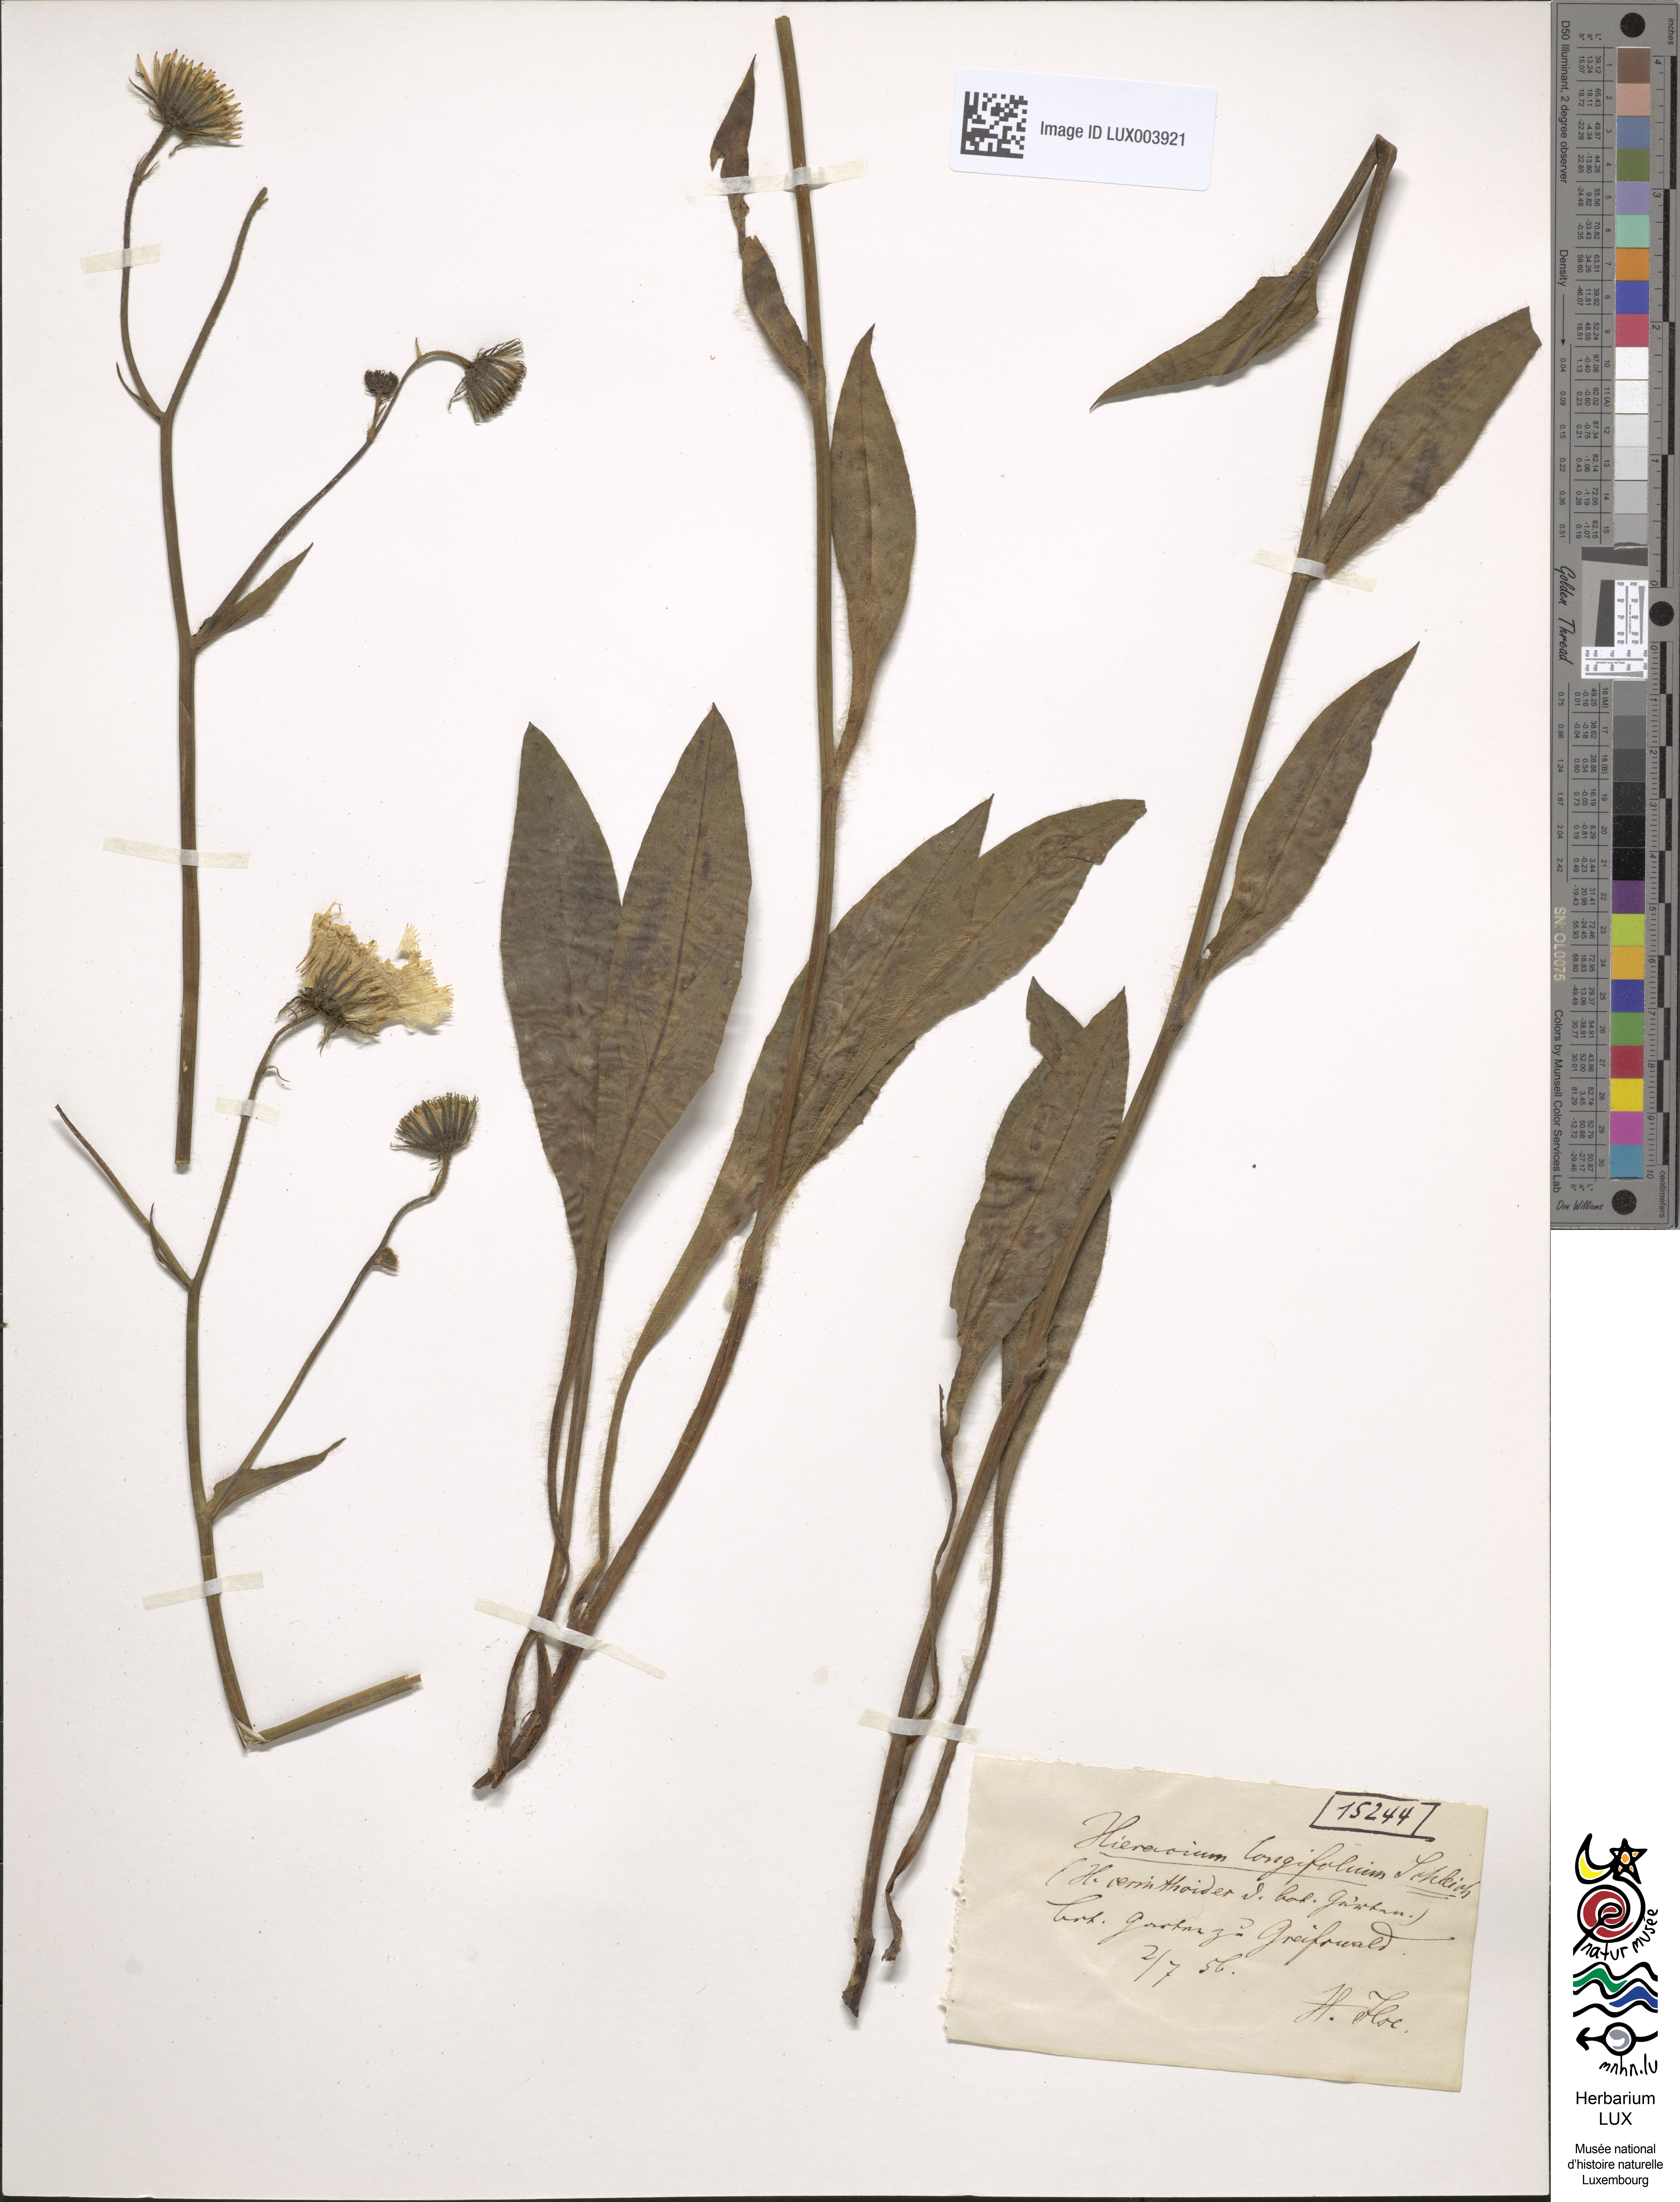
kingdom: Plantae
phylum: Tracheophyta
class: Magnoliopsida
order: Asterales
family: Asteraceae
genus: Hieracium
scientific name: Hieracium longifolium
